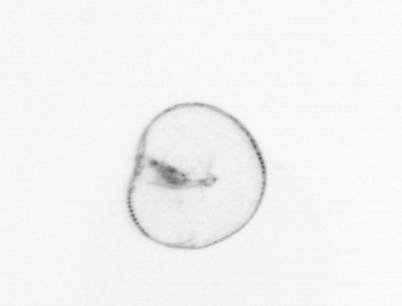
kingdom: Chromista
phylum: Myzozoa
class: Dinophyceae
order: Noctilucales
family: Noctilucaceae
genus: Noctiluca
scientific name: Noctiluca scintillans
